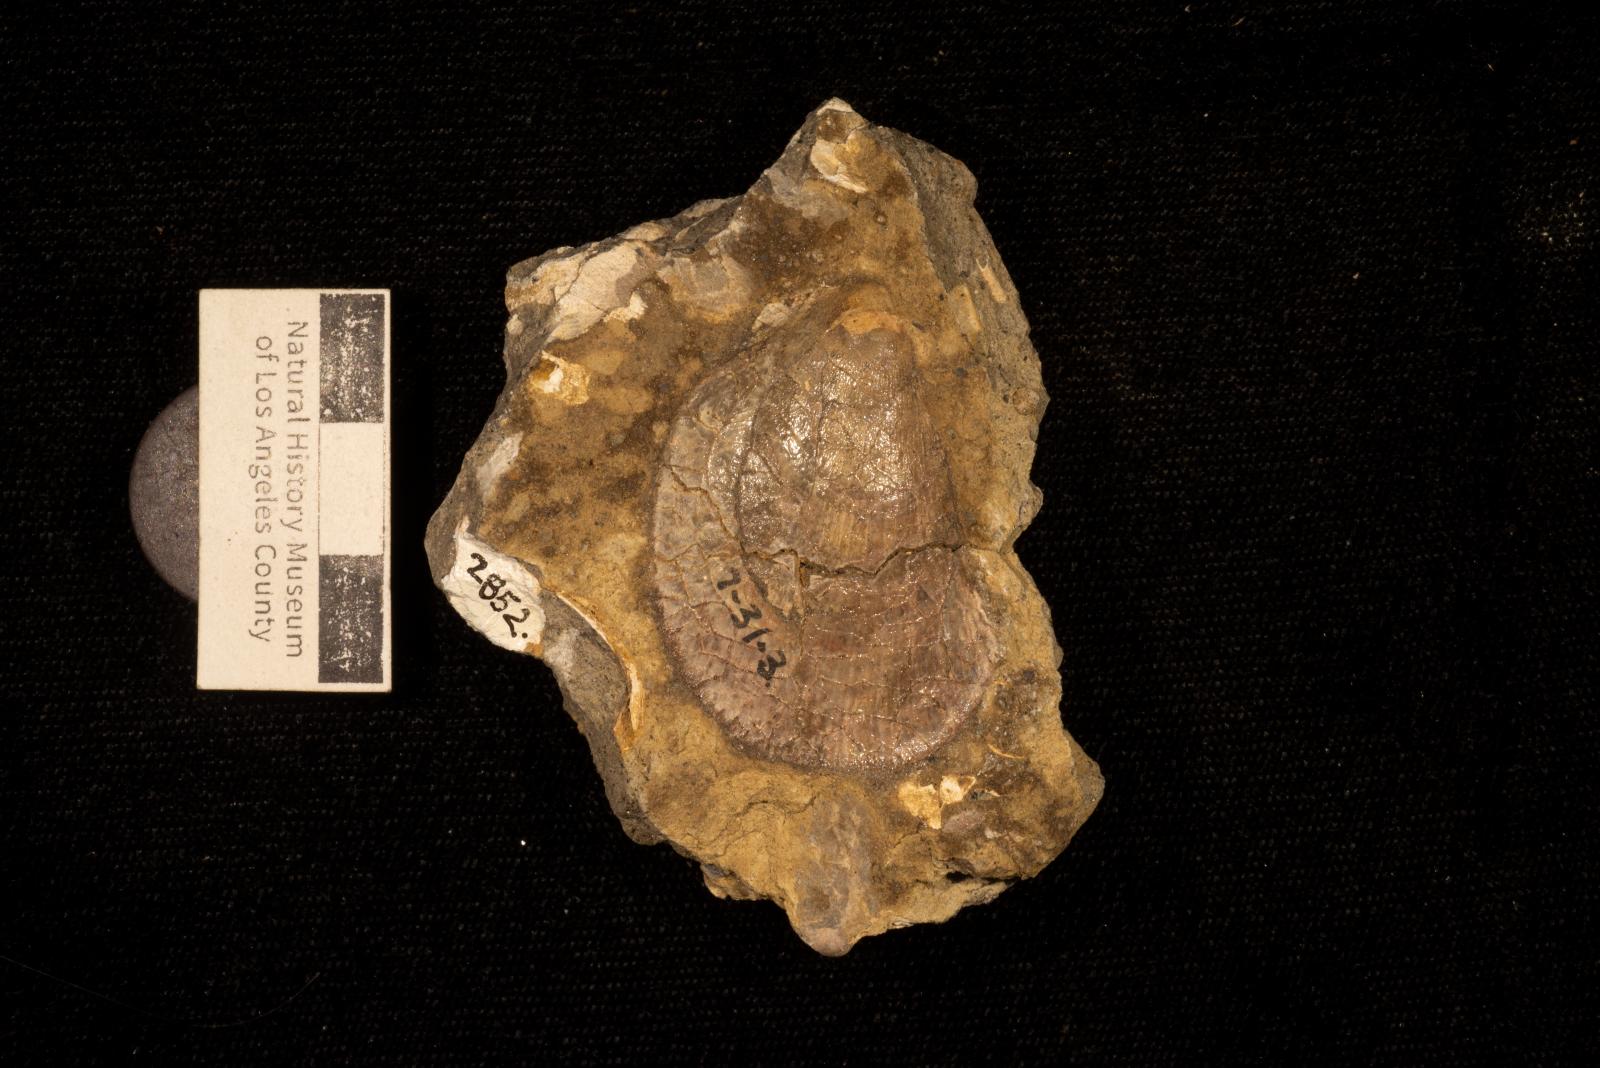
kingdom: Animalia
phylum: Mollusca
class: Bivalvia
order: Limida
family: Limidae
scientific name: Limidae
